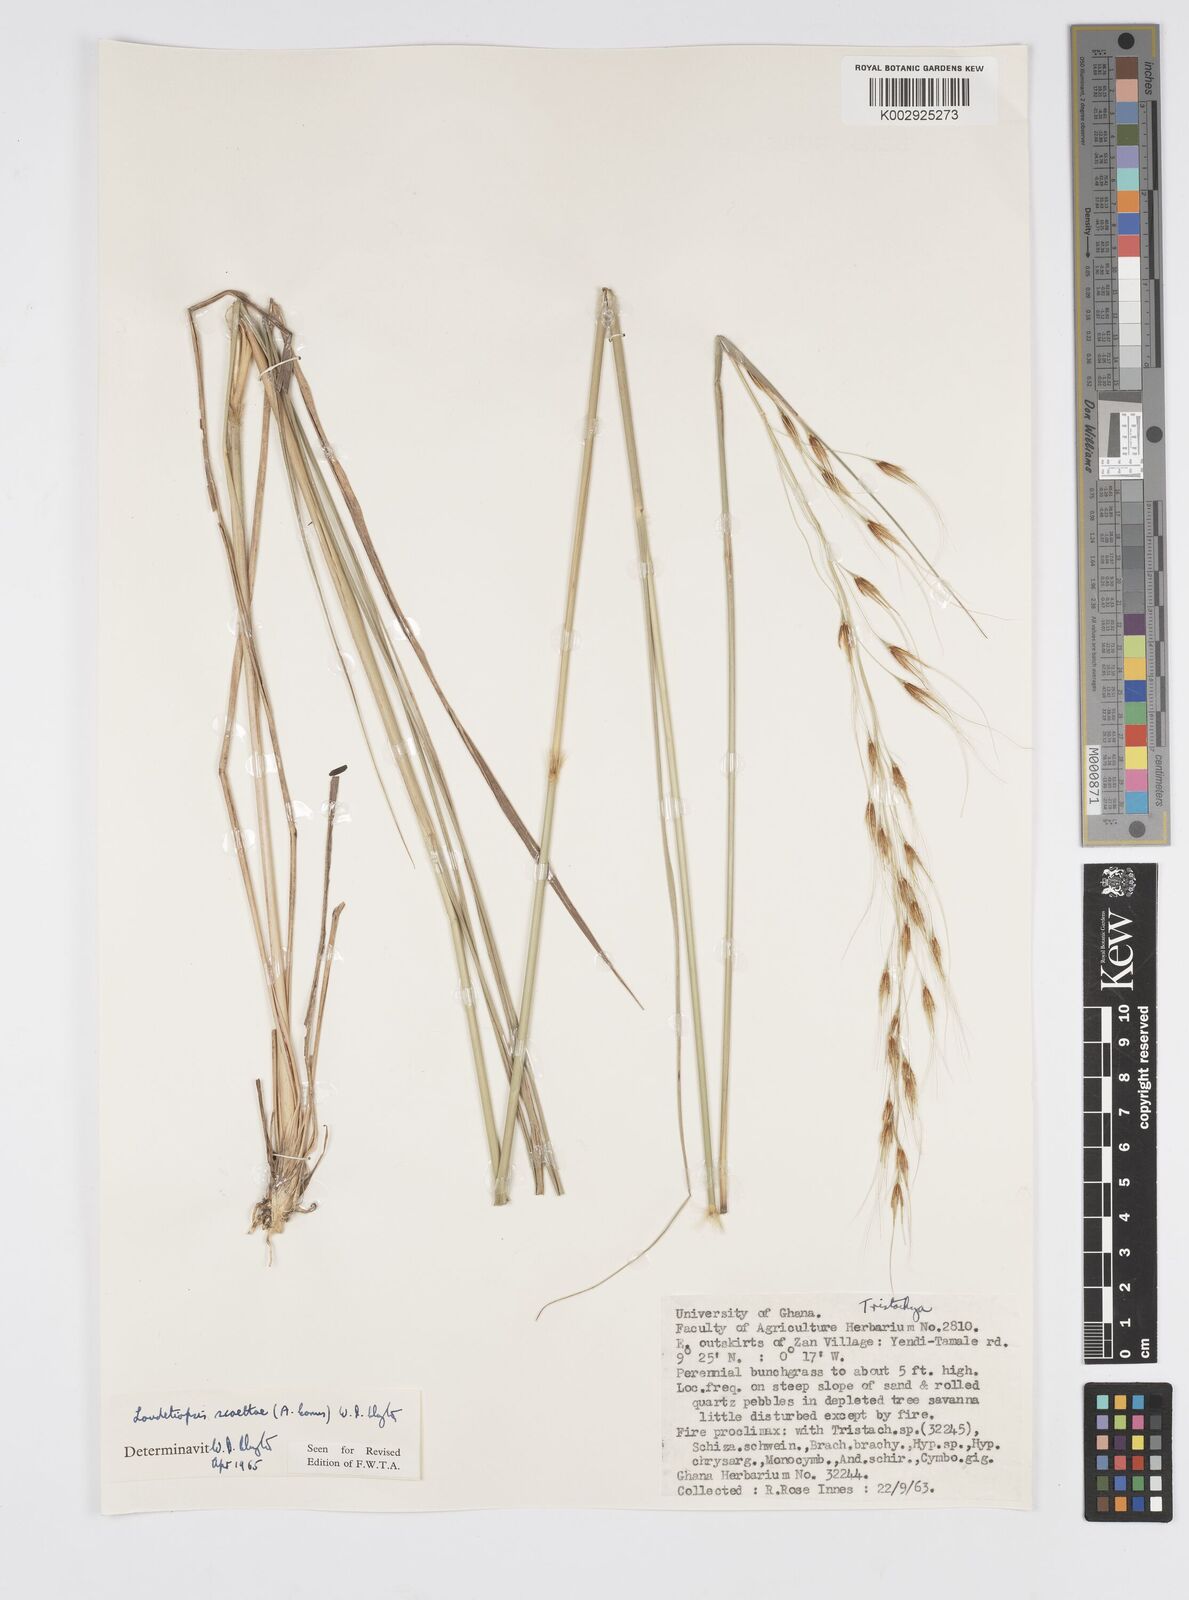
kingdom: Plantae
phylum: Tracheophyta
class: Liliopsida
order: Poales
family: Poaceae
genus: Loudetiopsis
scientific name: Loudetiopsis scaettae
